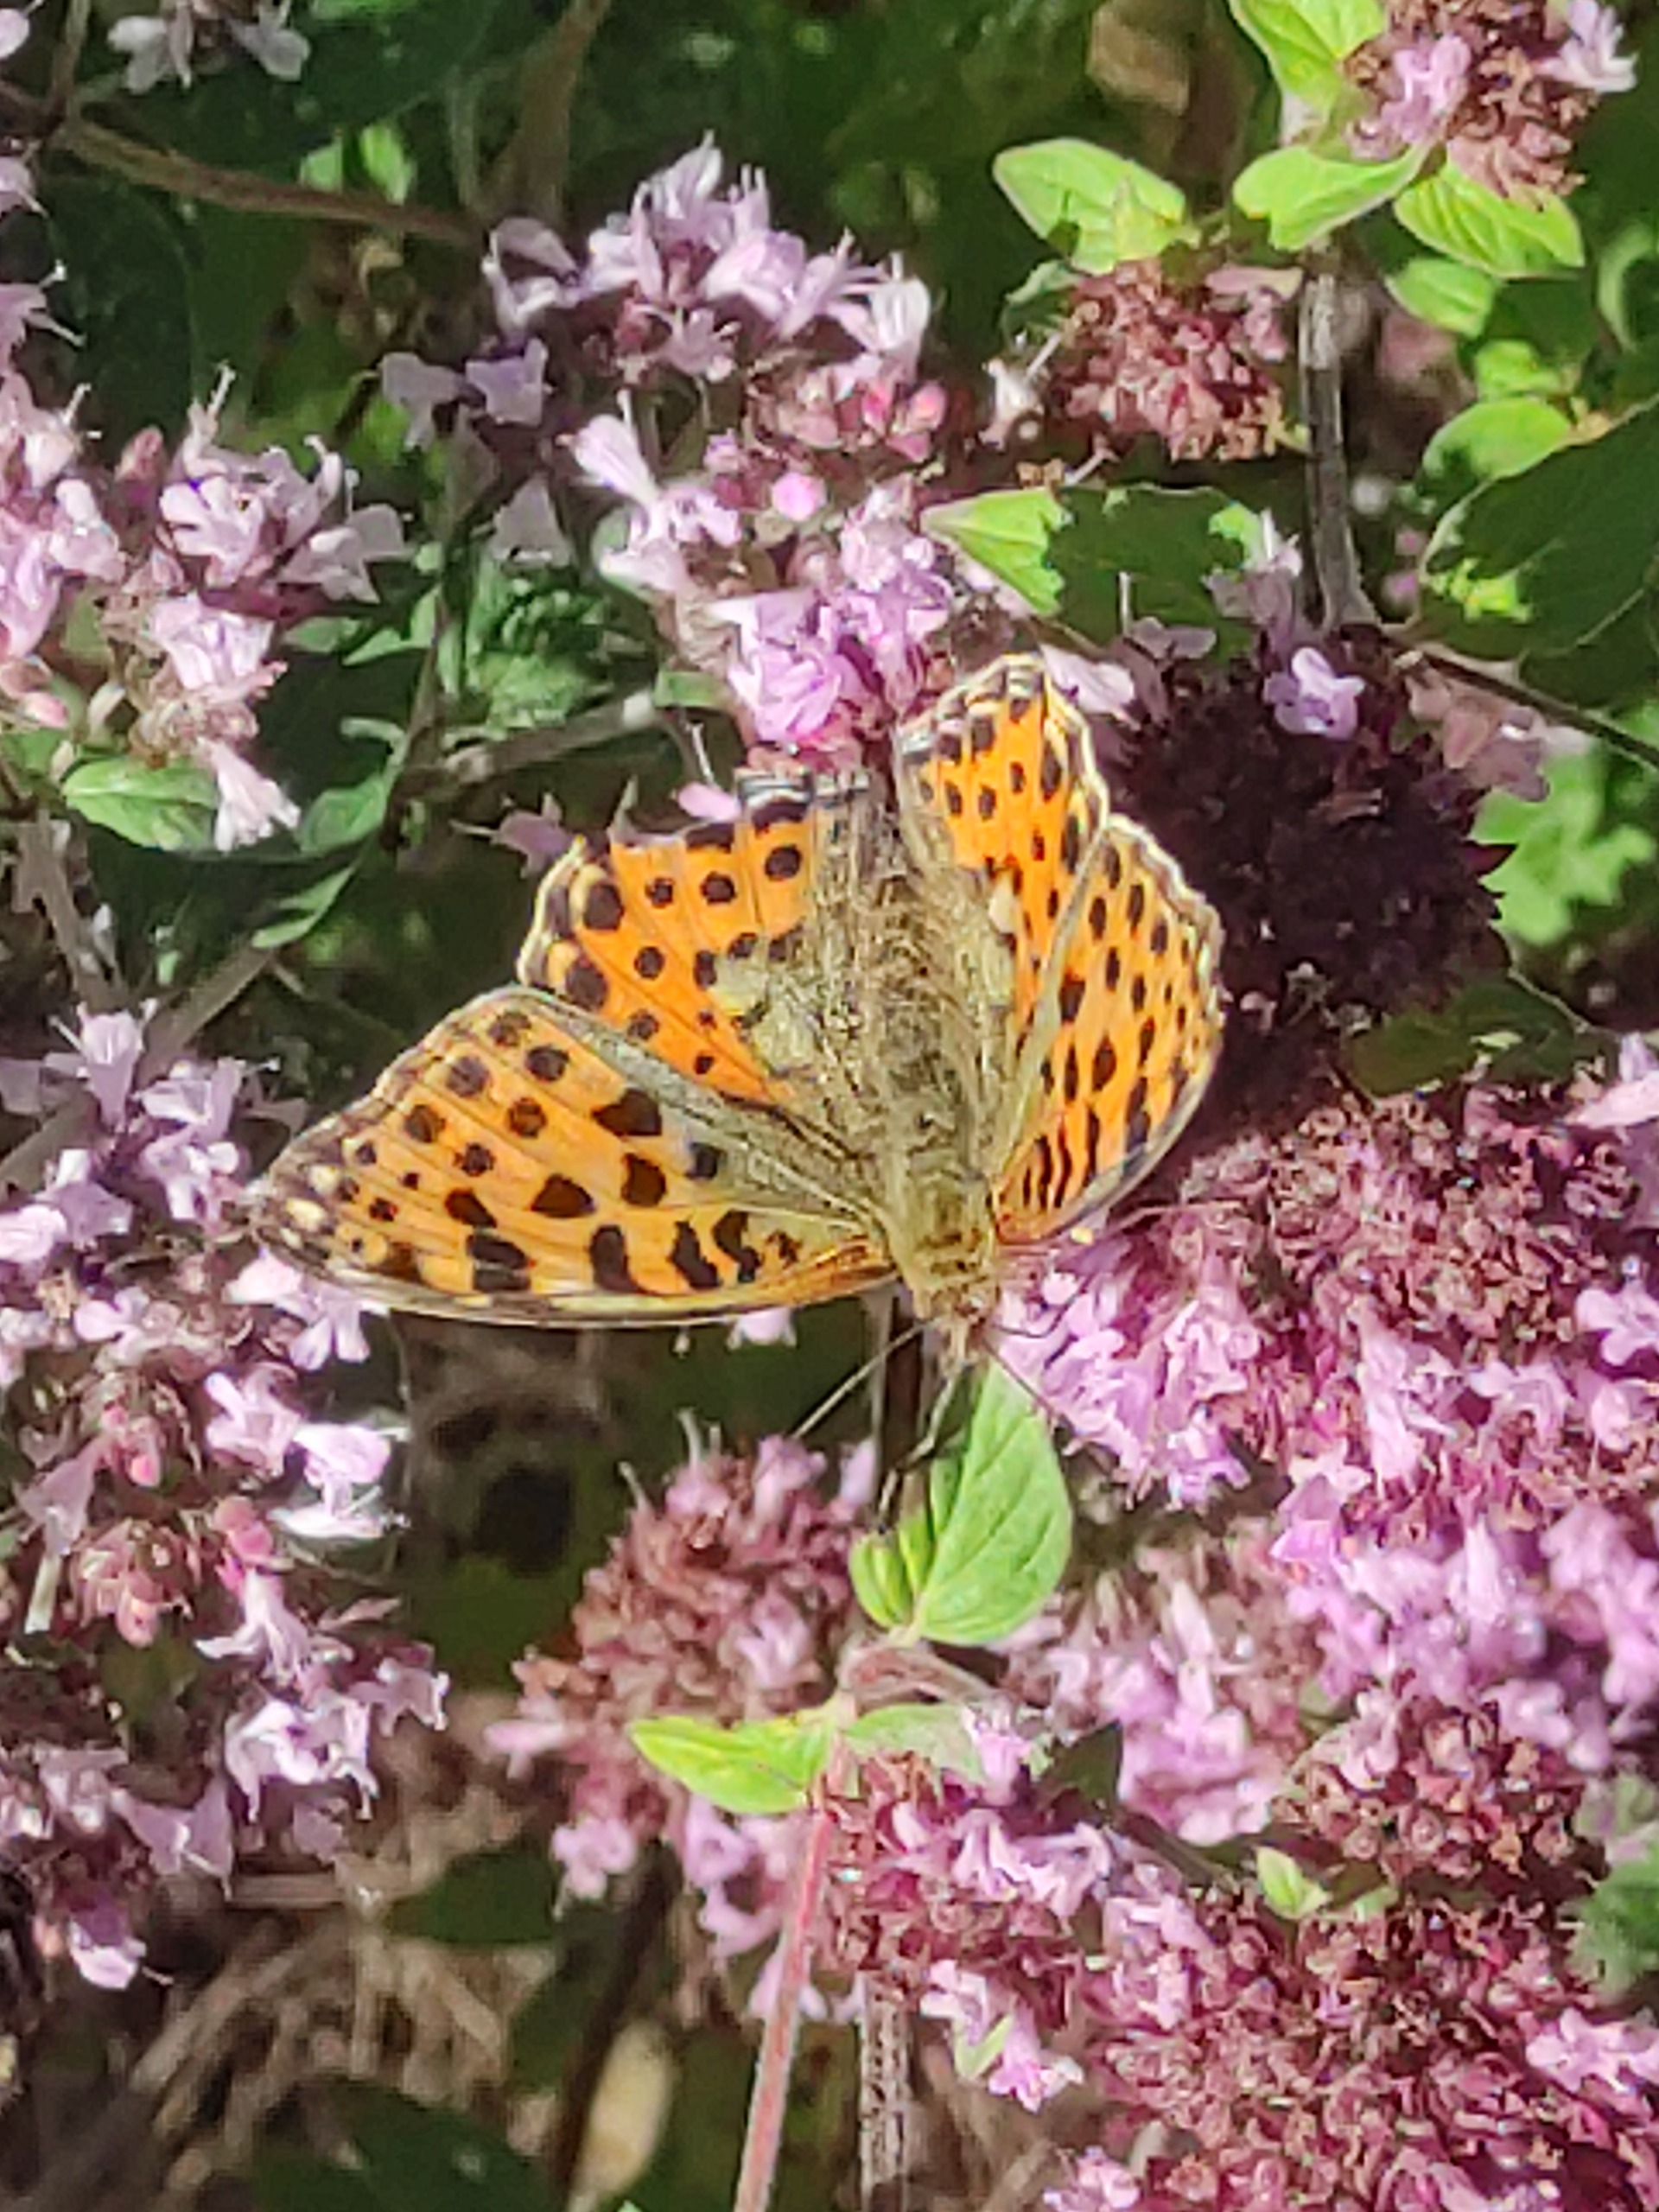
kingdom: Animalia
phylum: Arthropoda
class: Insecta
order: Lepidoptera
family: Nymphalidae
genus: Issoria
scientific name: Issoria lathonia
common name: Storplettet perlemorsommerfugl
